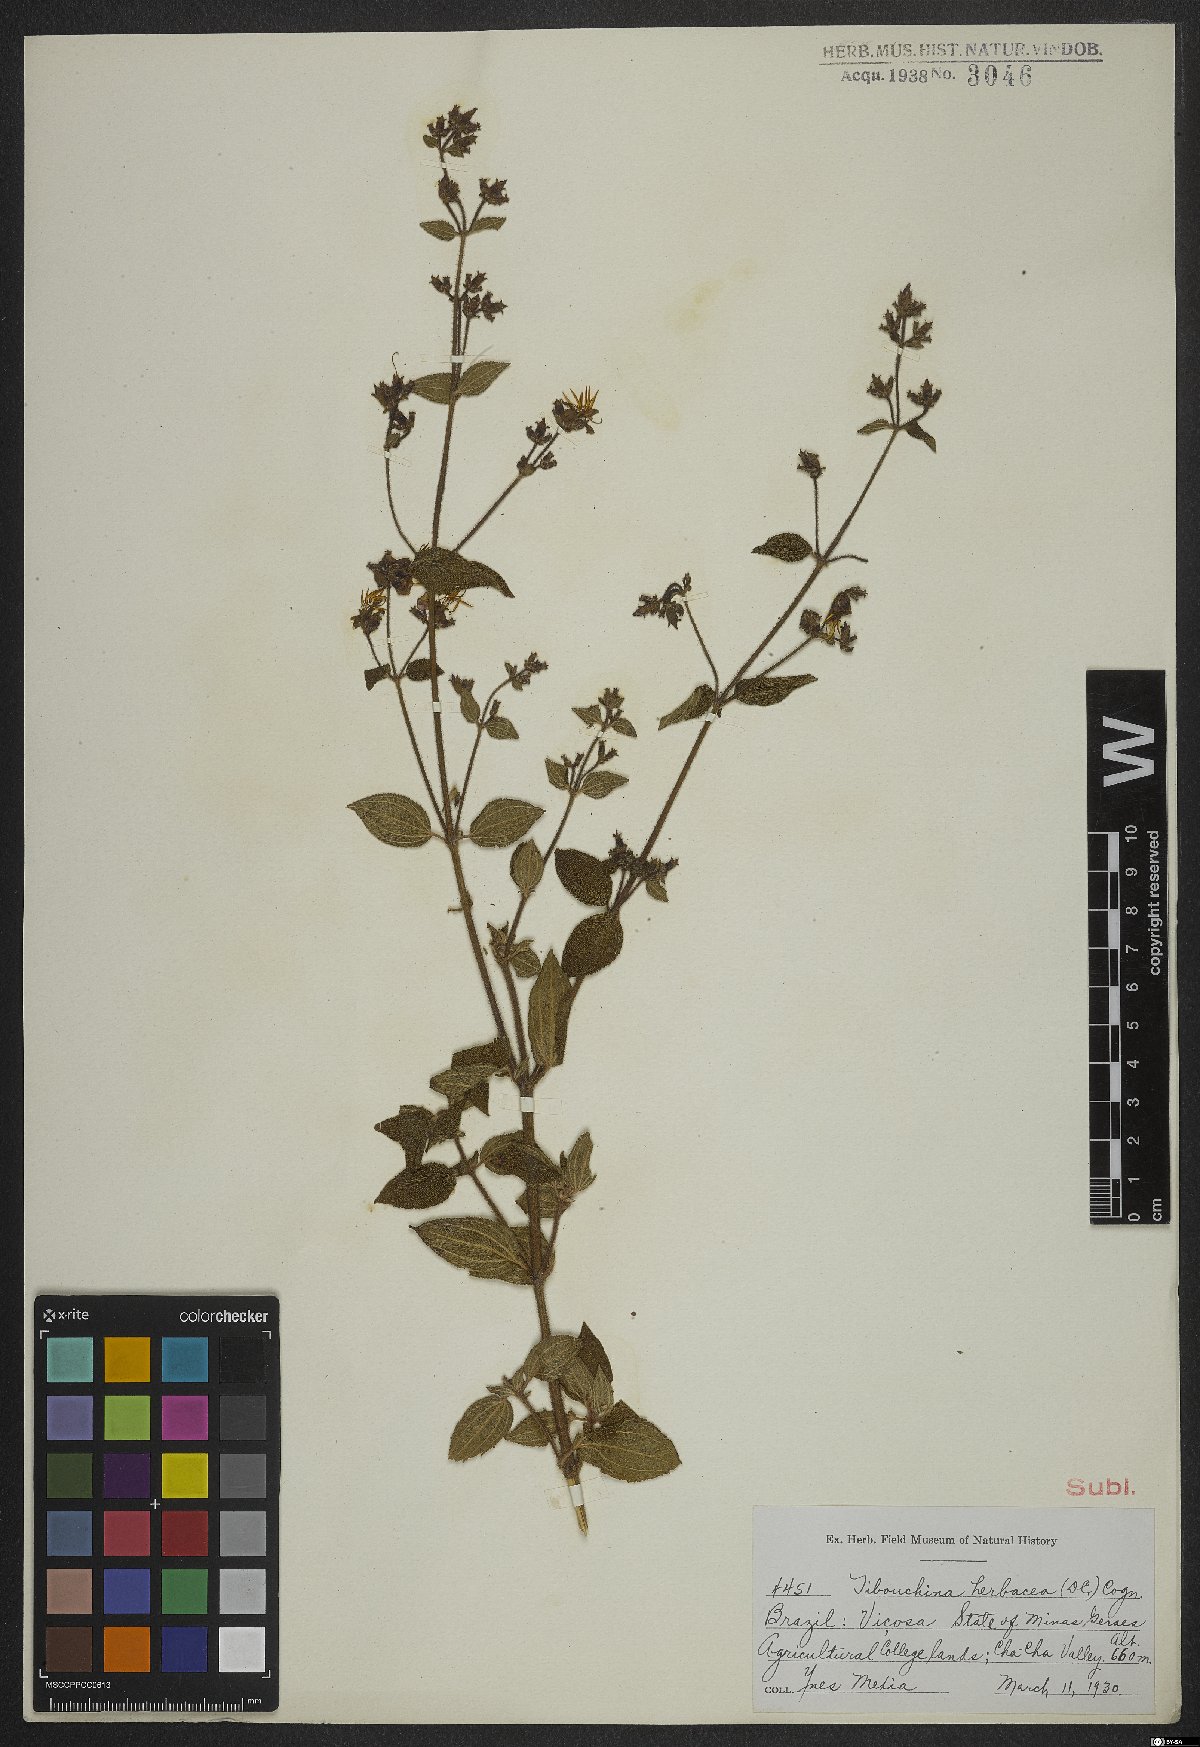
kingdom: Plantae
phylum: Tracheophyta
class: Magnoliopsida
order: Myrtales
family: Melastomataceae
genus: Chaetogastra
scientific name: Chaetogastra herbacea
